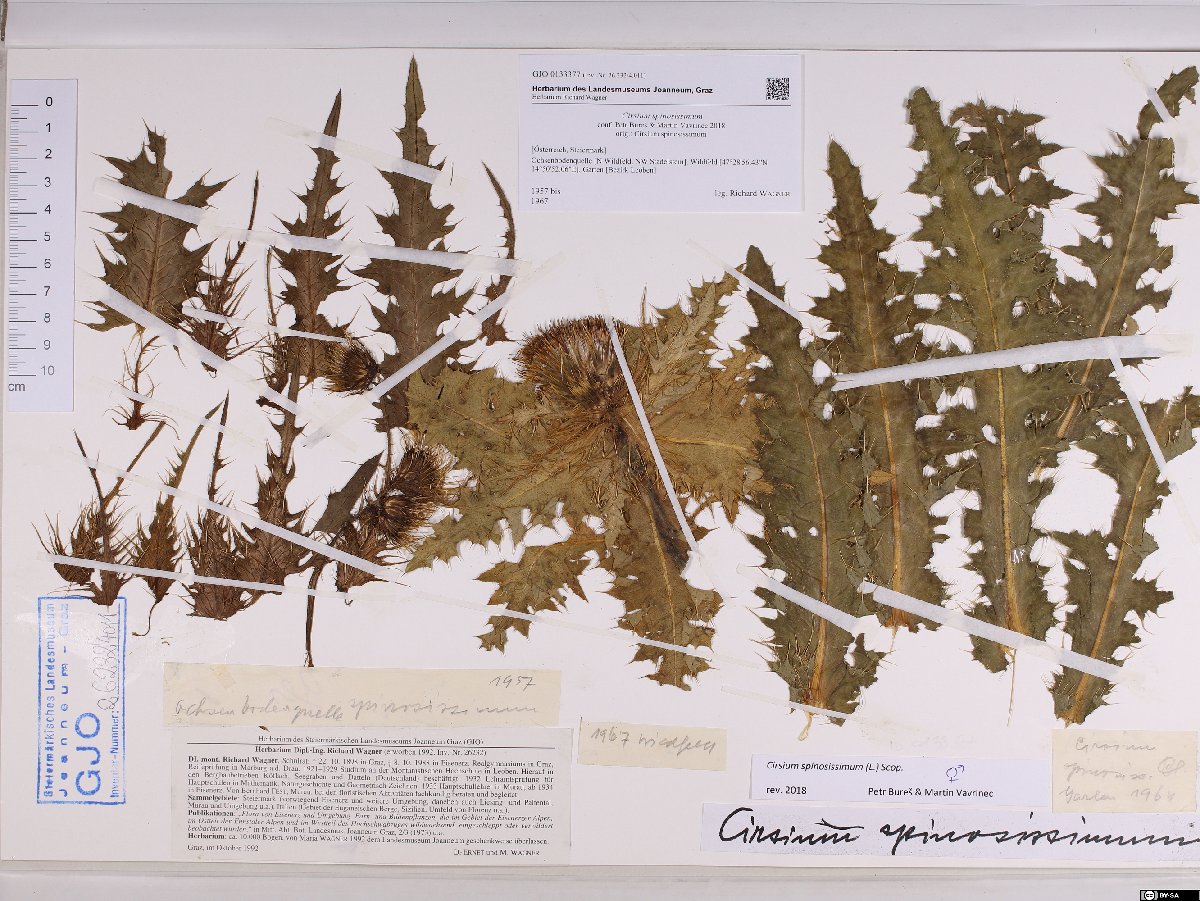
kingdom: Plantae
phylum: Tracheophyta
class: Magnoliopsida
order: Asterales
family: Asteraceae
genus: Cirsium
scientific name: Cirsium spinosissimum
